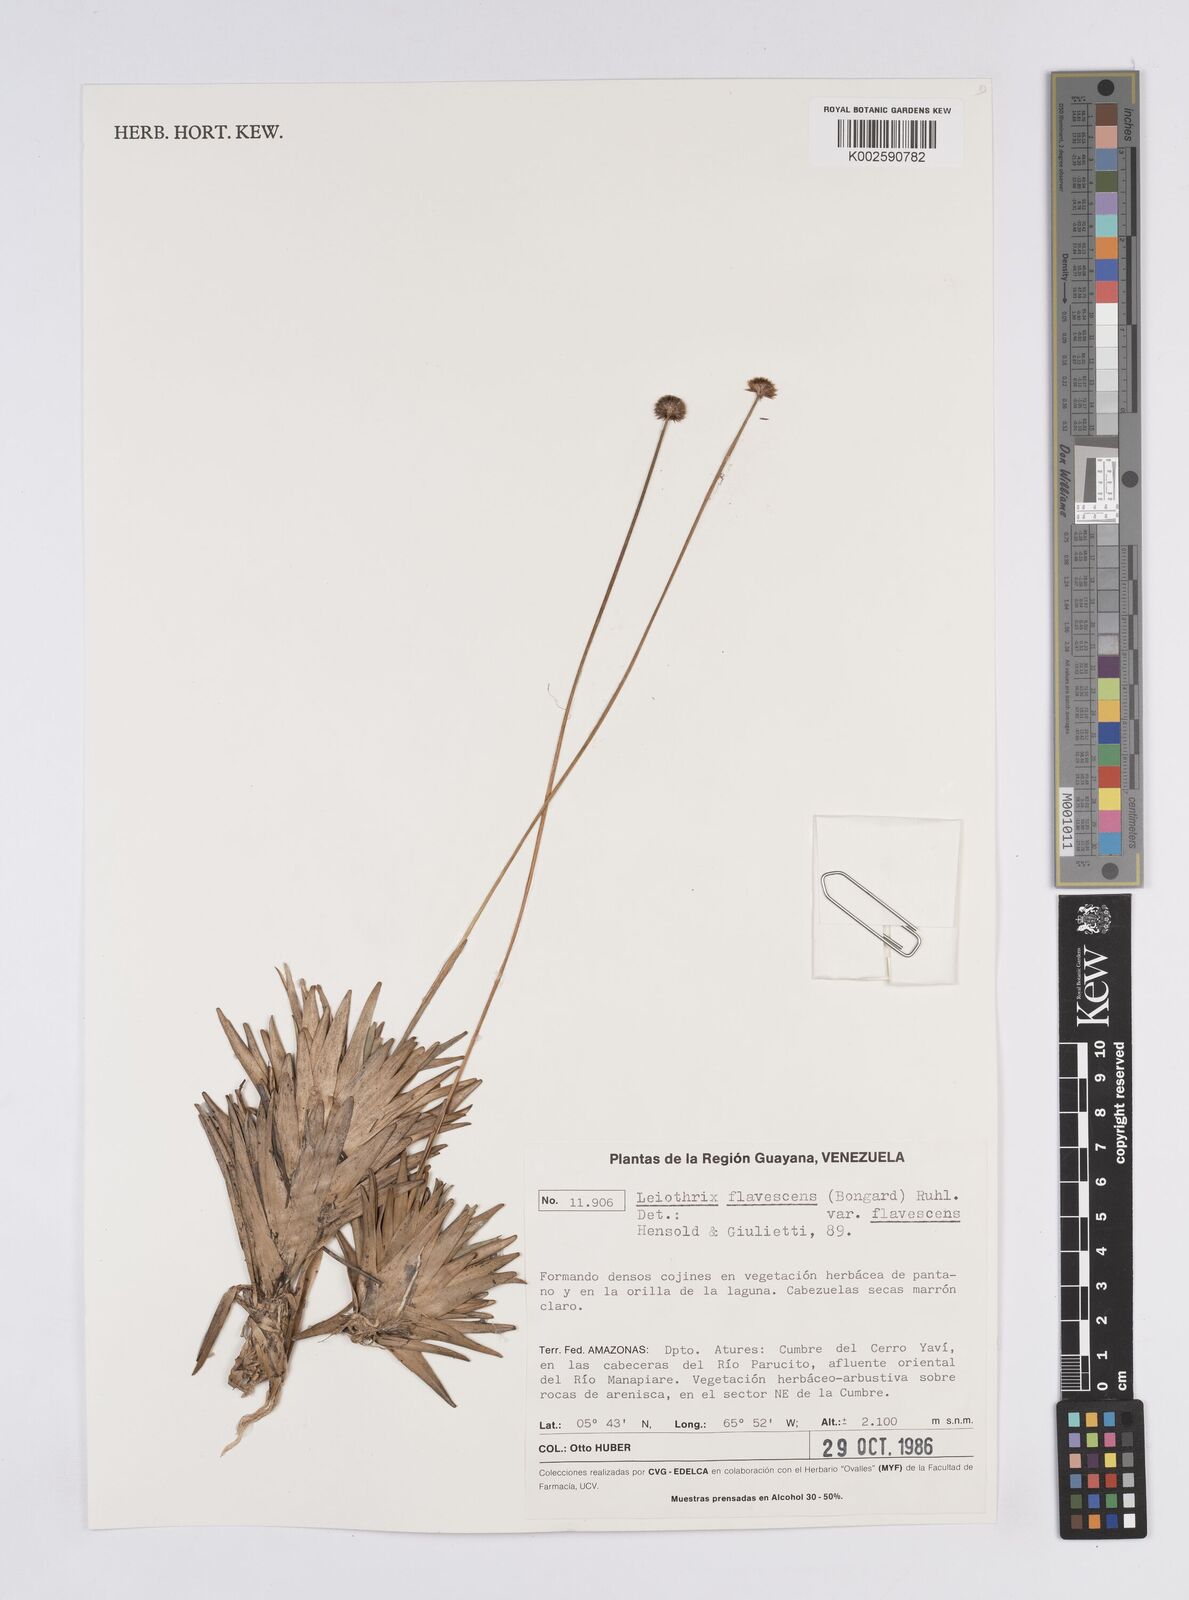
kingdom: Plantae
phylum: Tracheophyta
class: Liliopsida
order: Poales
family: Eriocaulaceae
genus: Leiothrix
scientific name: Leiothrix flavescens
